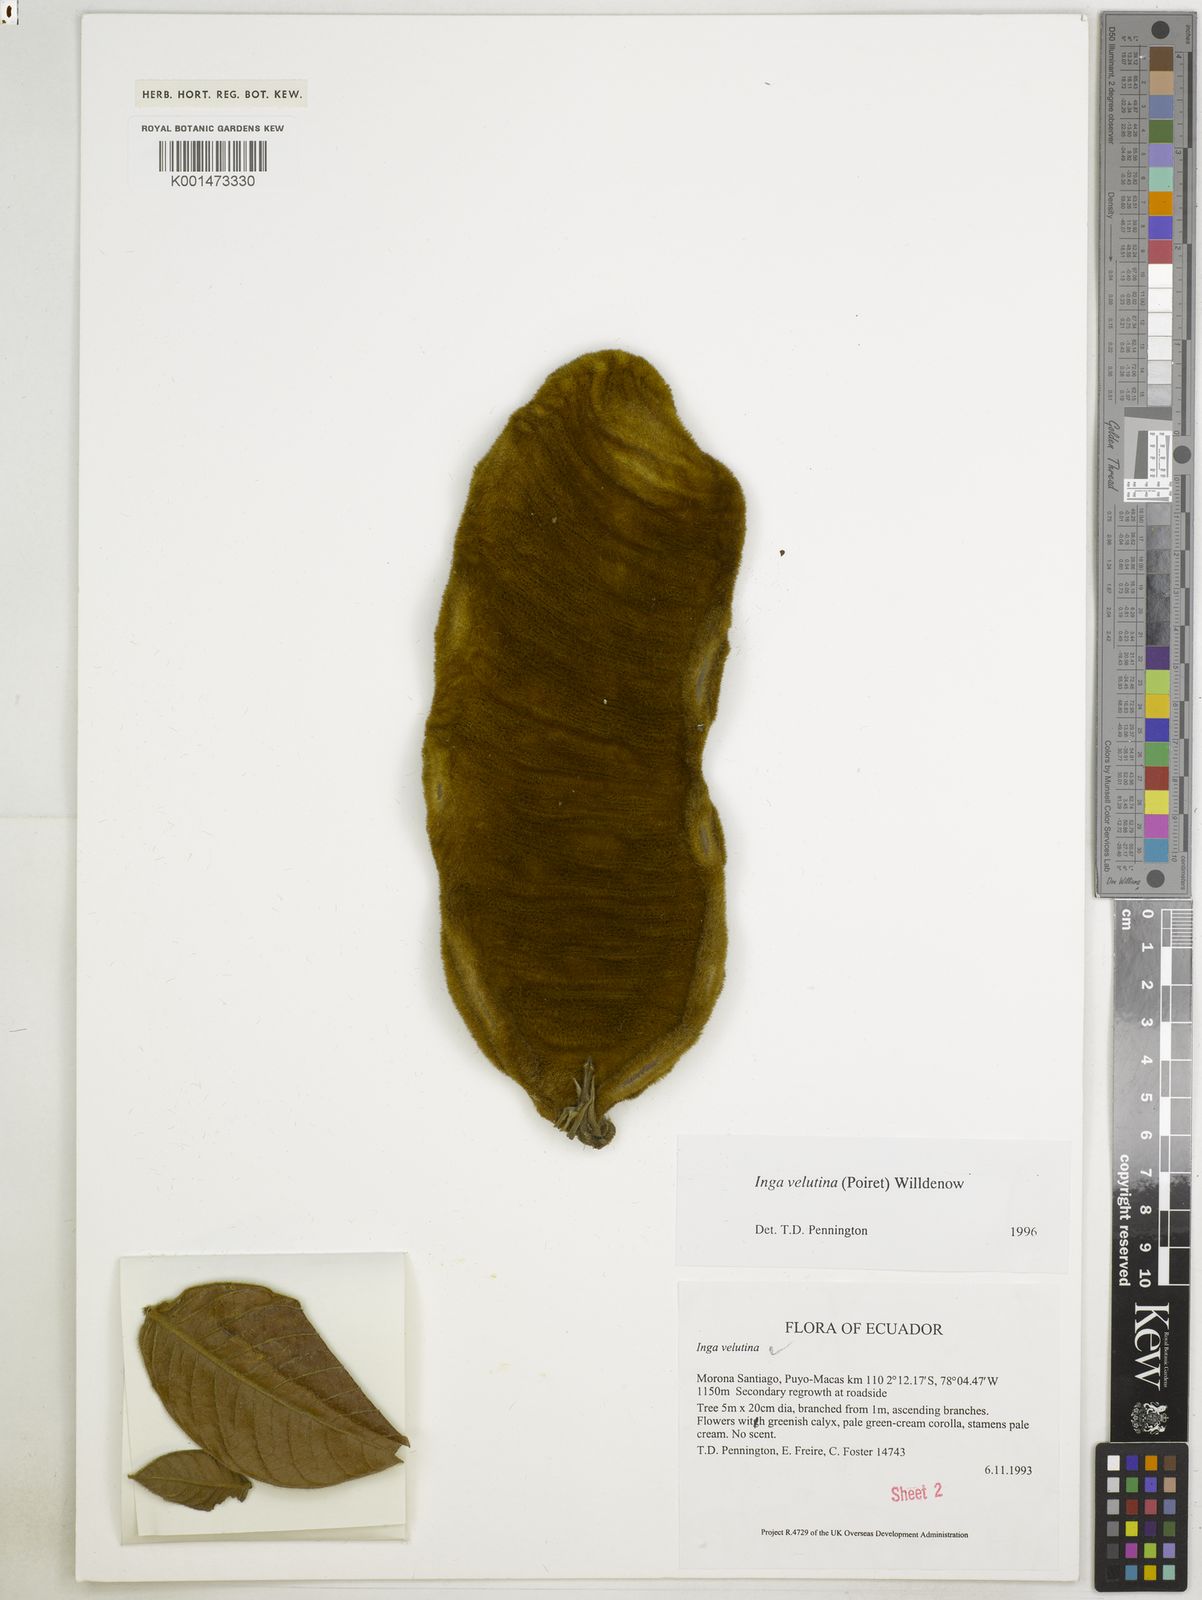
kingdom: Plantae
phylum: Tracheophyta
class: Magnoliopsida
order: Fabales
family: Fabaceae
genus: Inga
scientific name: Inga velutina
